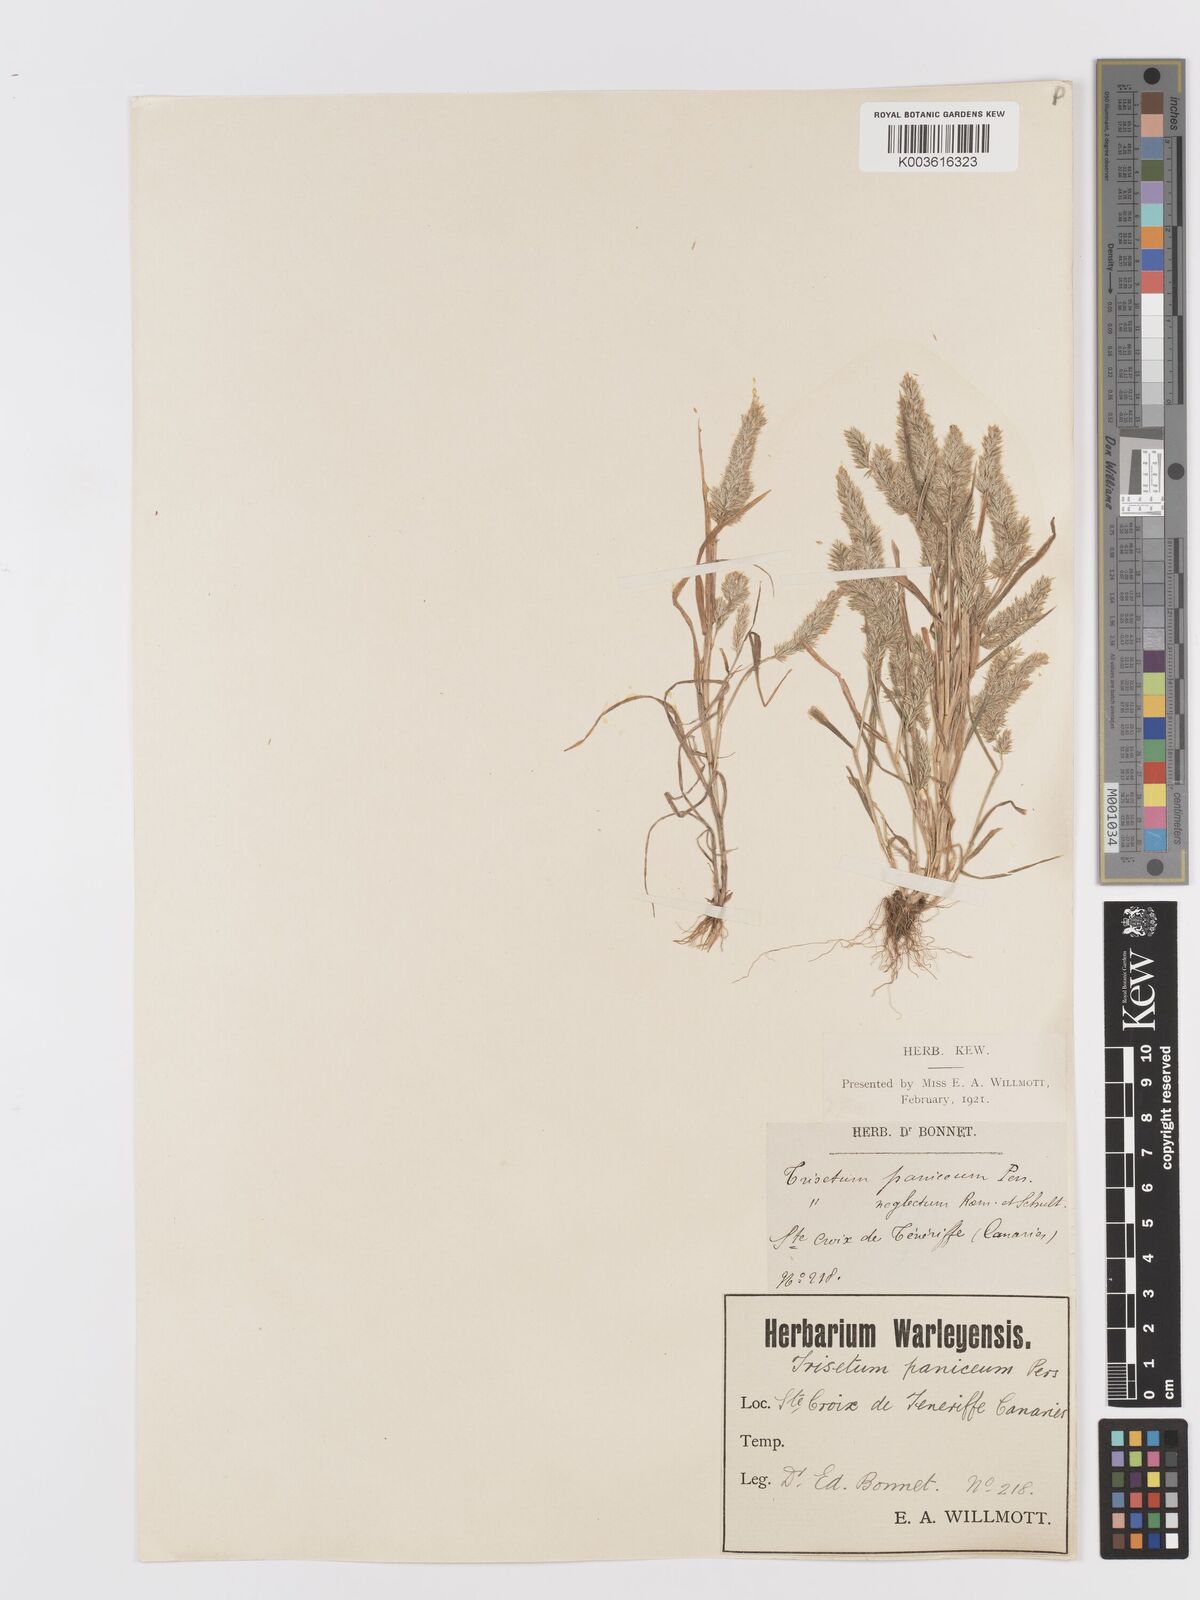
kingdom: Plantae
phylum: Tracheophyta
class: Liliopsida
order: Poales
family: Poaceae
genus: Trisetaria
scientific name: Trisetaria panicea
